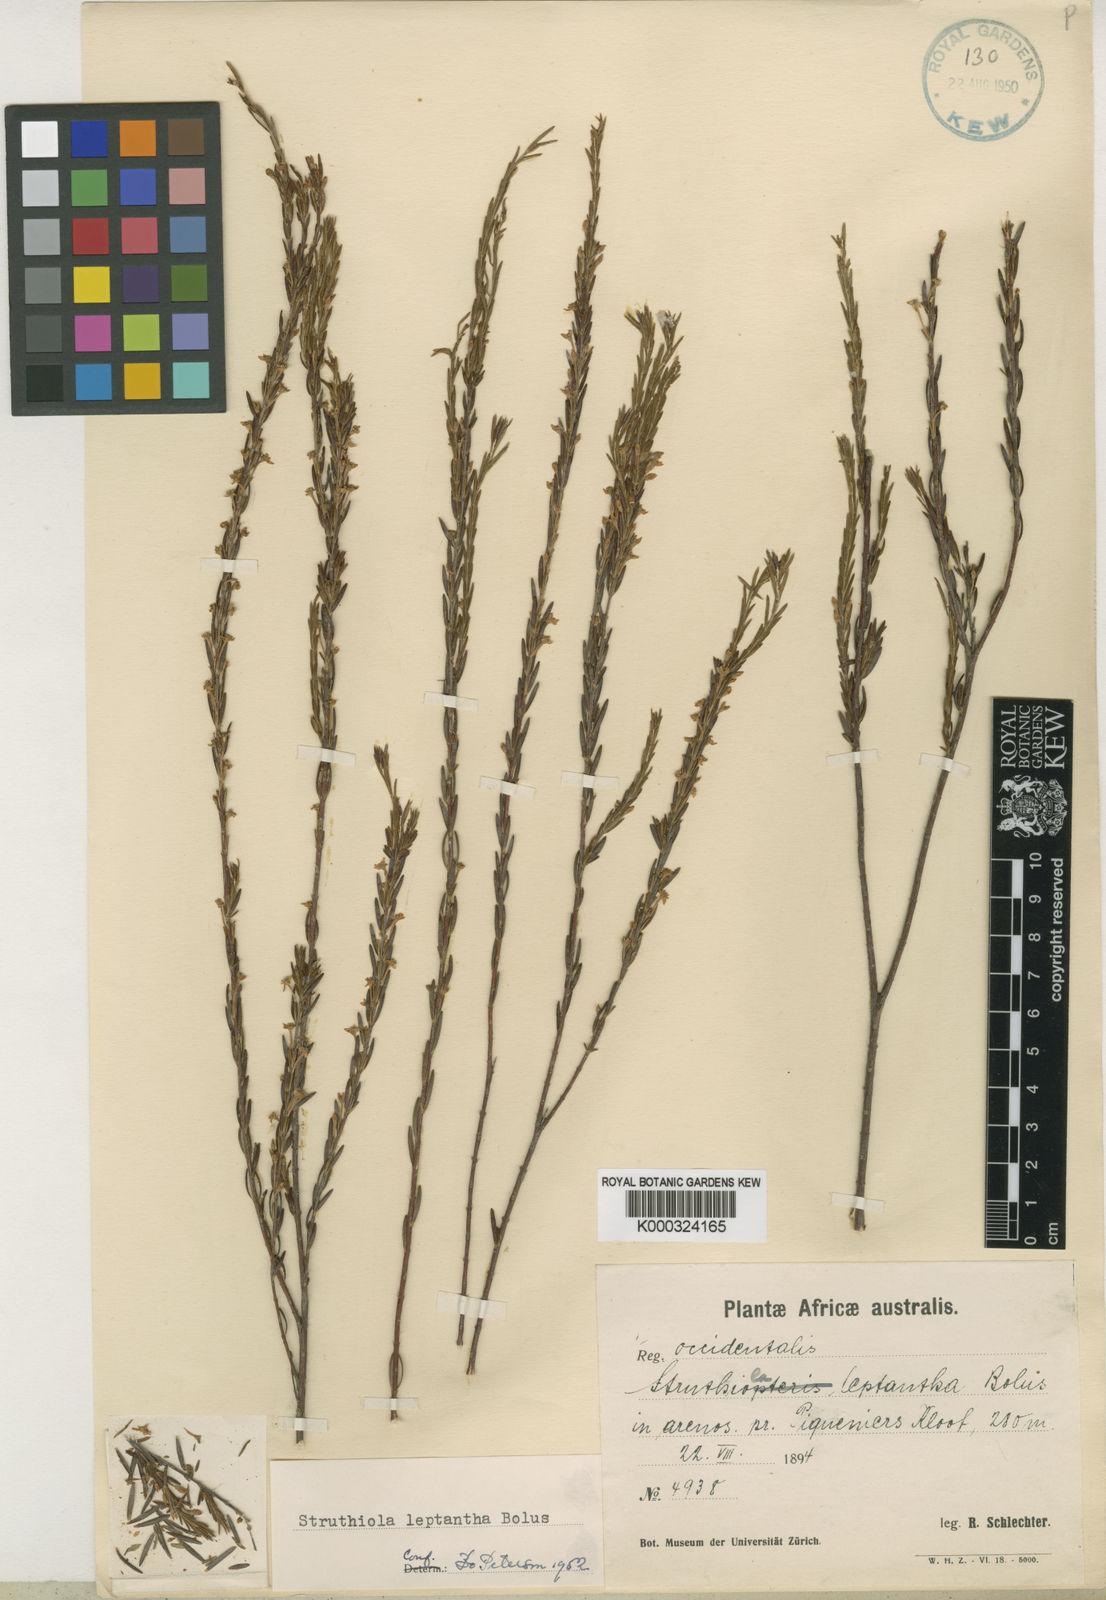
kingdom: Plantae
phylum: Tracheophyta
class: Magnoliopsida
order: Malvales
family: Thymelaeaceae
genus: Struthiola
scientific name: Struthiola leptantha
